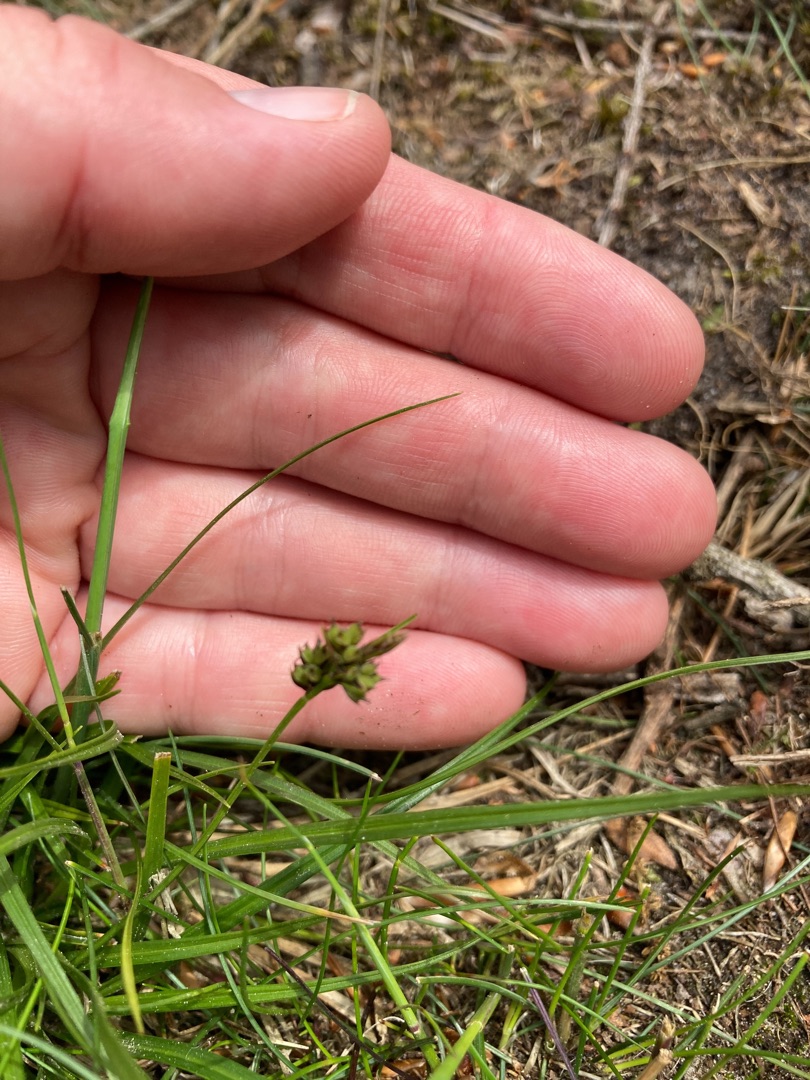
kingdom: Plantae
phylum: Tracheophyta
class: Liliopsida
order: Poales
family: Cyperaceae
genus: Carex
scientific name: Carex pilulifera
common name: Pille-star
